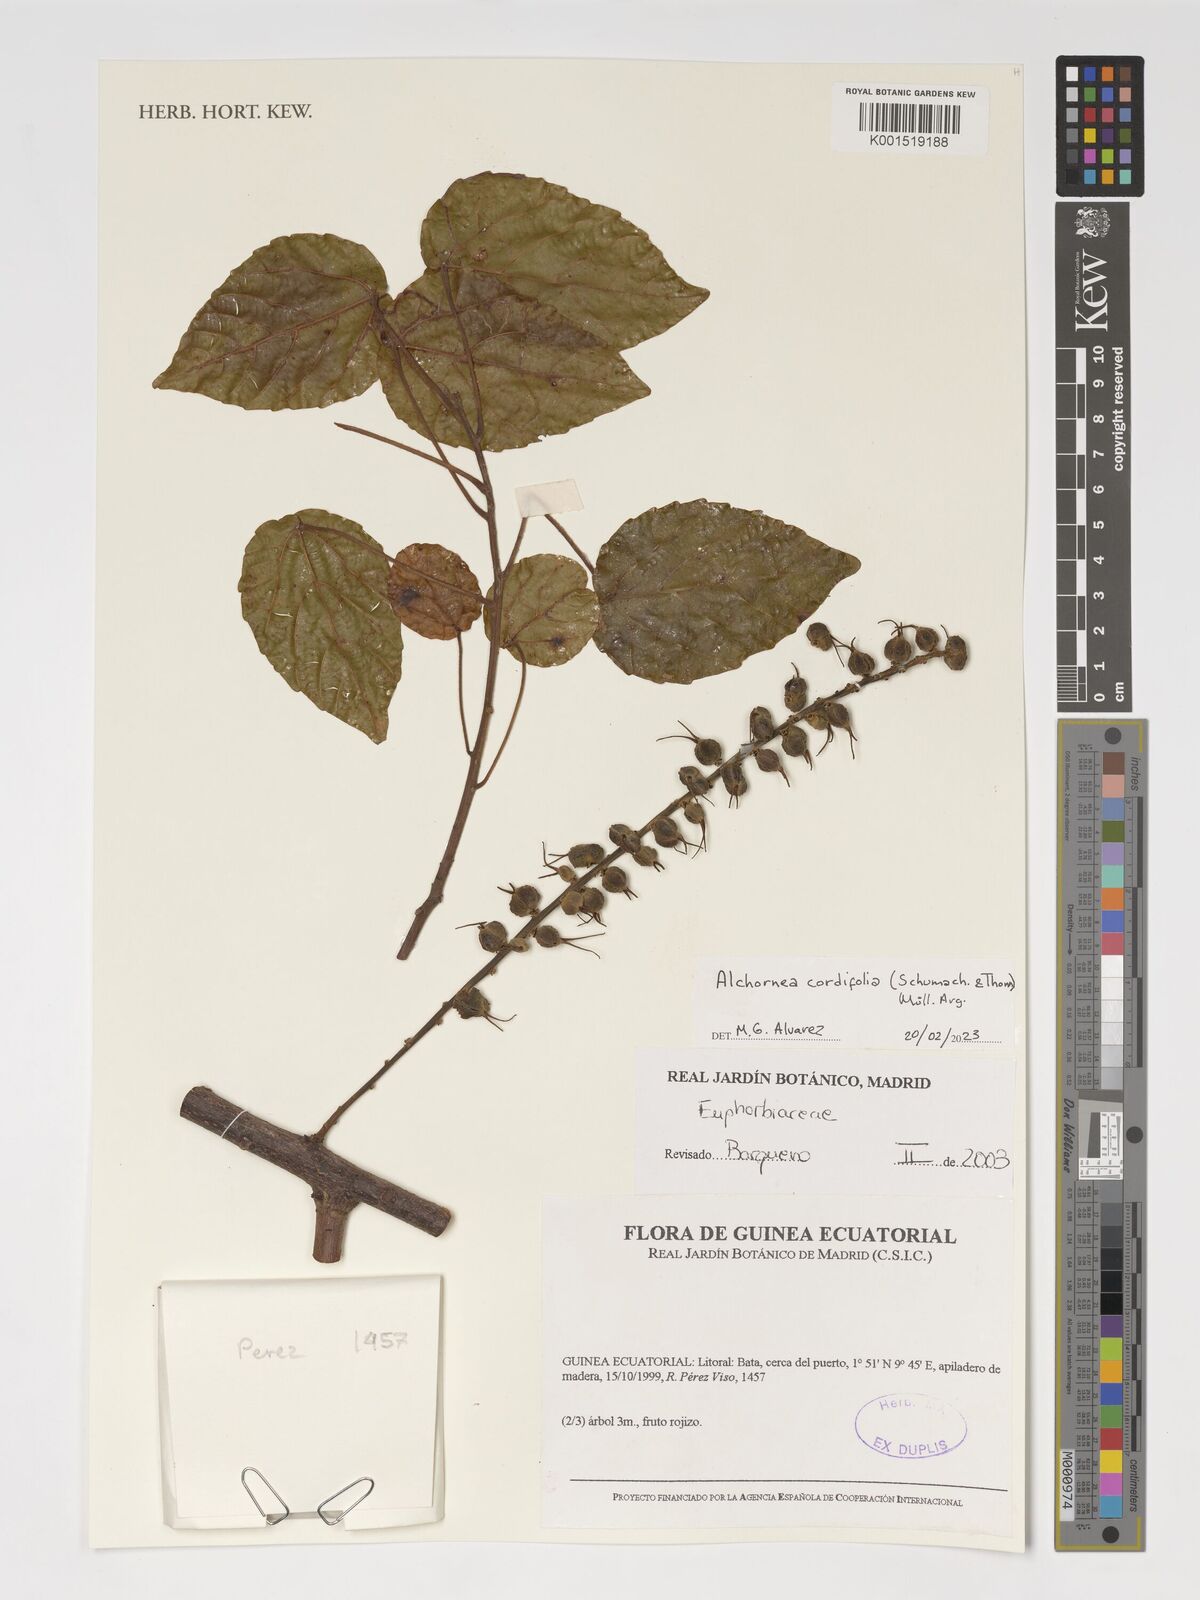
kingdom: Plantae
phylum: Tracheophyta
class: Magnoliopsida
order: Malpighiales
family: Euphorbiaceae
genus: Alchornea
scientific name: Alchornea cordifolia
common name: Christmasbush
